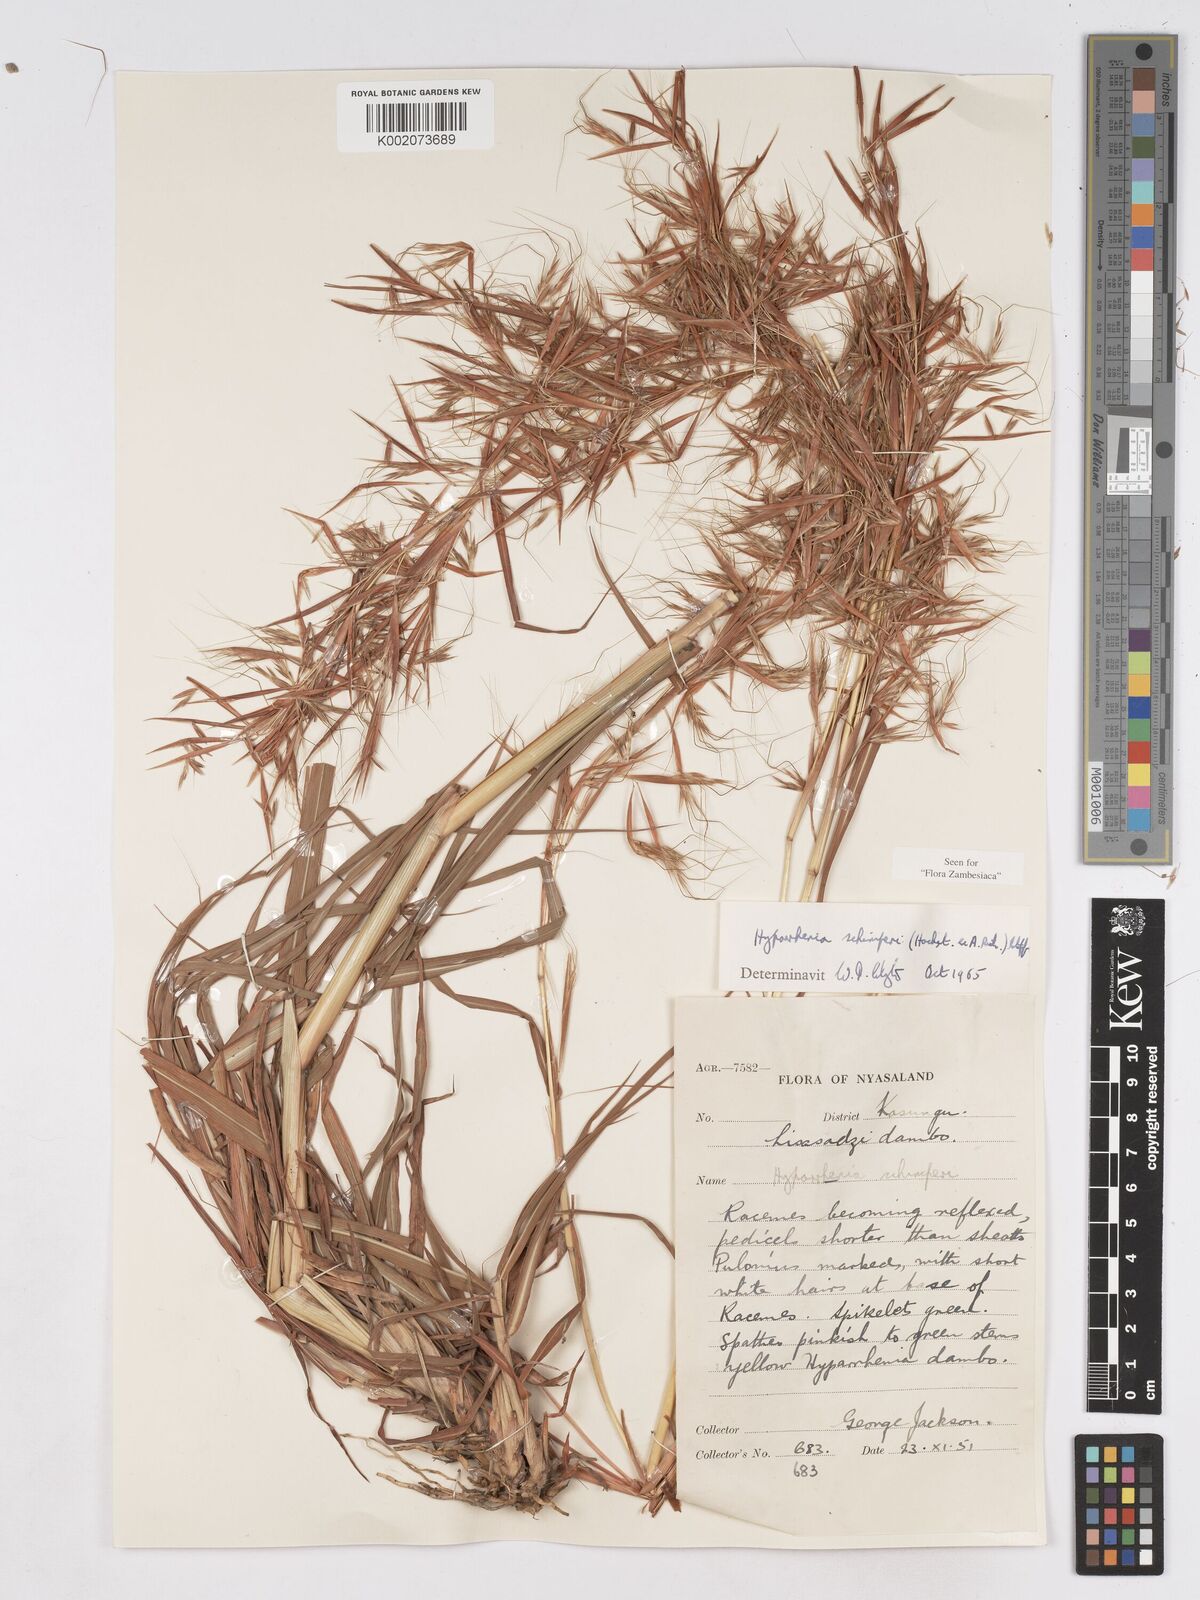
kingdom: Plantae
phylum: Tracheophyta
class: Liliopsida
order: Poales
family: Poaceae
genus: Hyparrhenia
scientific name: Hyparrhenia schimperi
